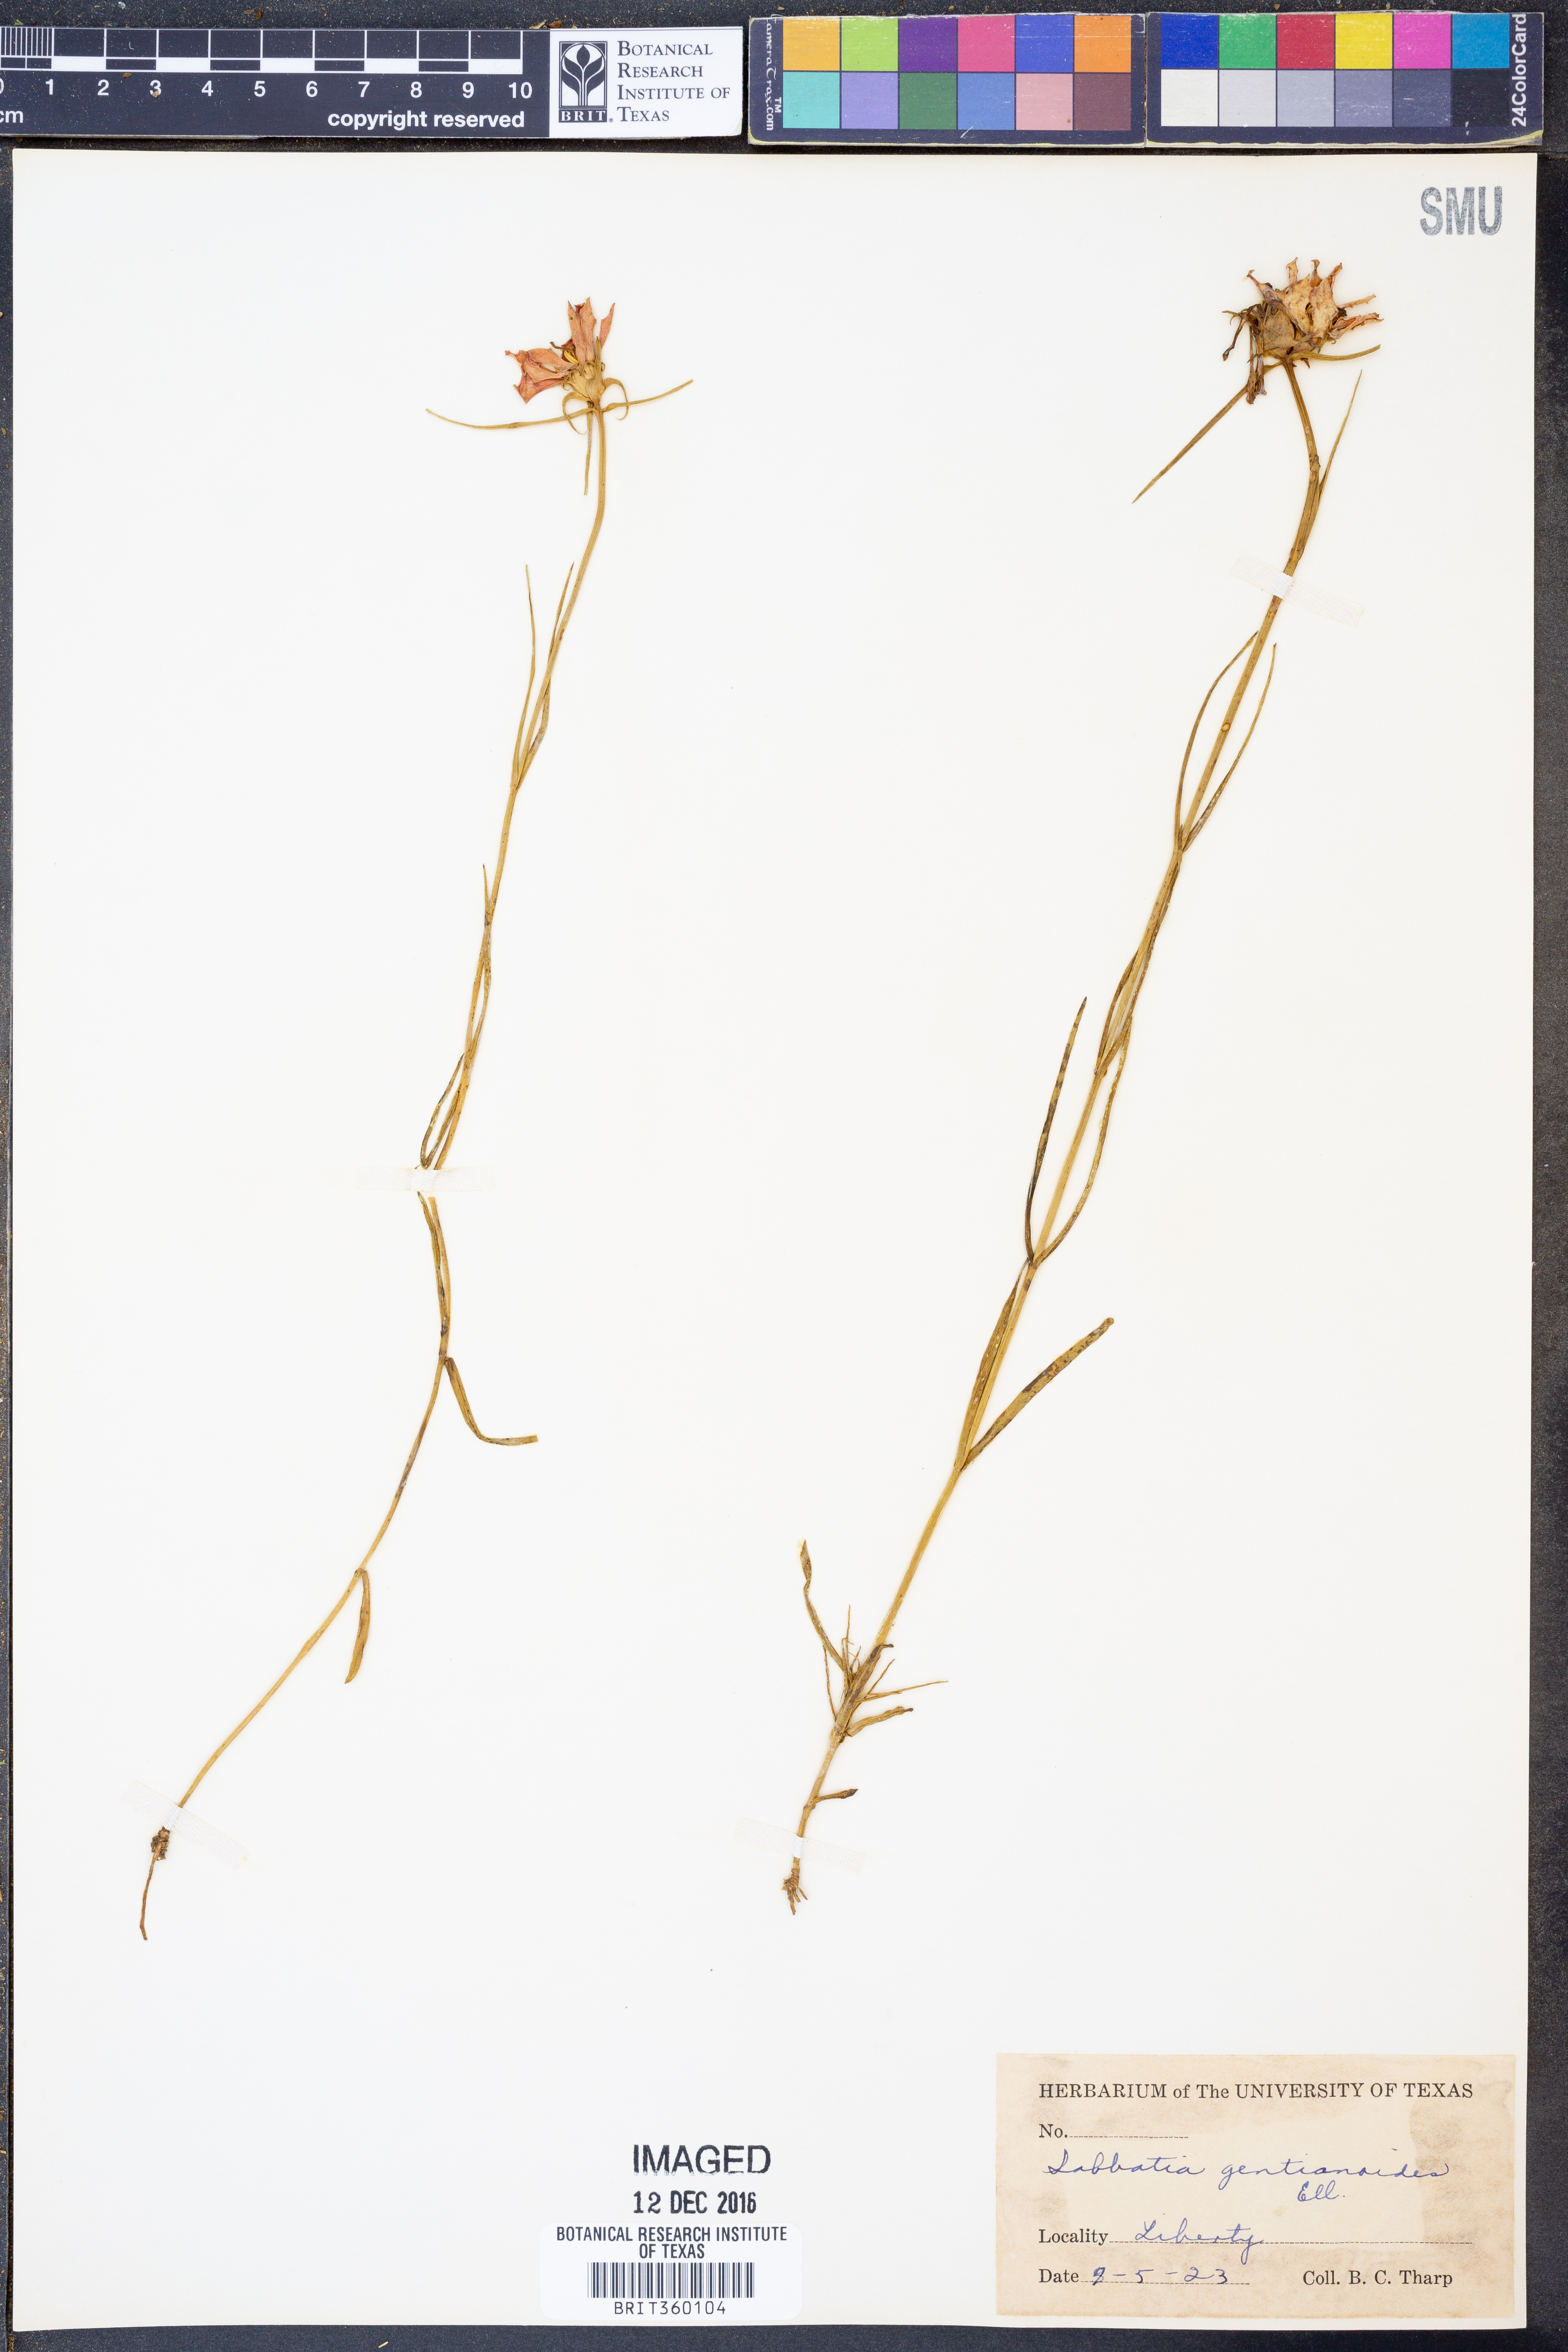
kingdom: Plantae
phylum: Tracheophyta
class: Magnoliopsida
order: Gentianales
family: Gentianaceae
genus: Sabatia
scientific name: Sabatia gentianoides
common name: Pinewoods rose-gentian
